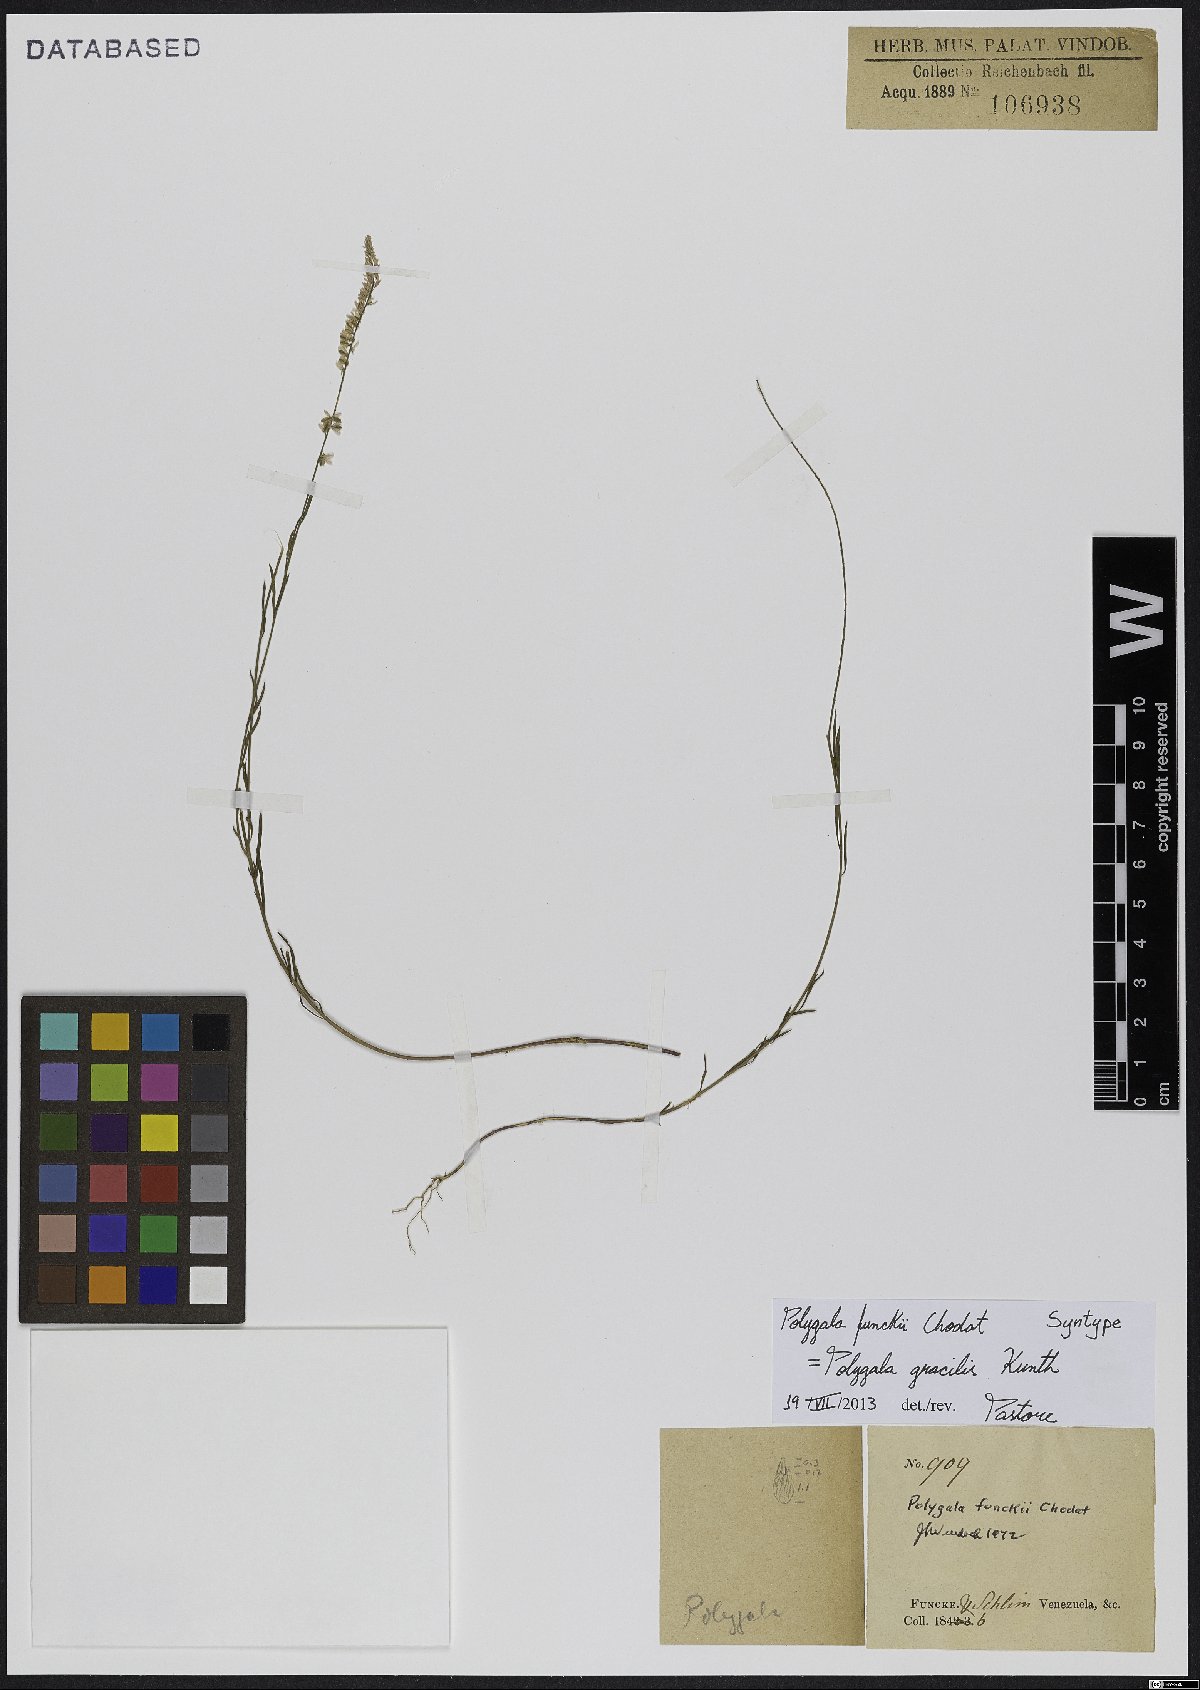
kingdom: Plantae
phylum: Tracheophyta
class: Magnoliopsida
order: Fabales
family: Polygalaceae
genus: Polygala
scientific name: Polygala gracilis
